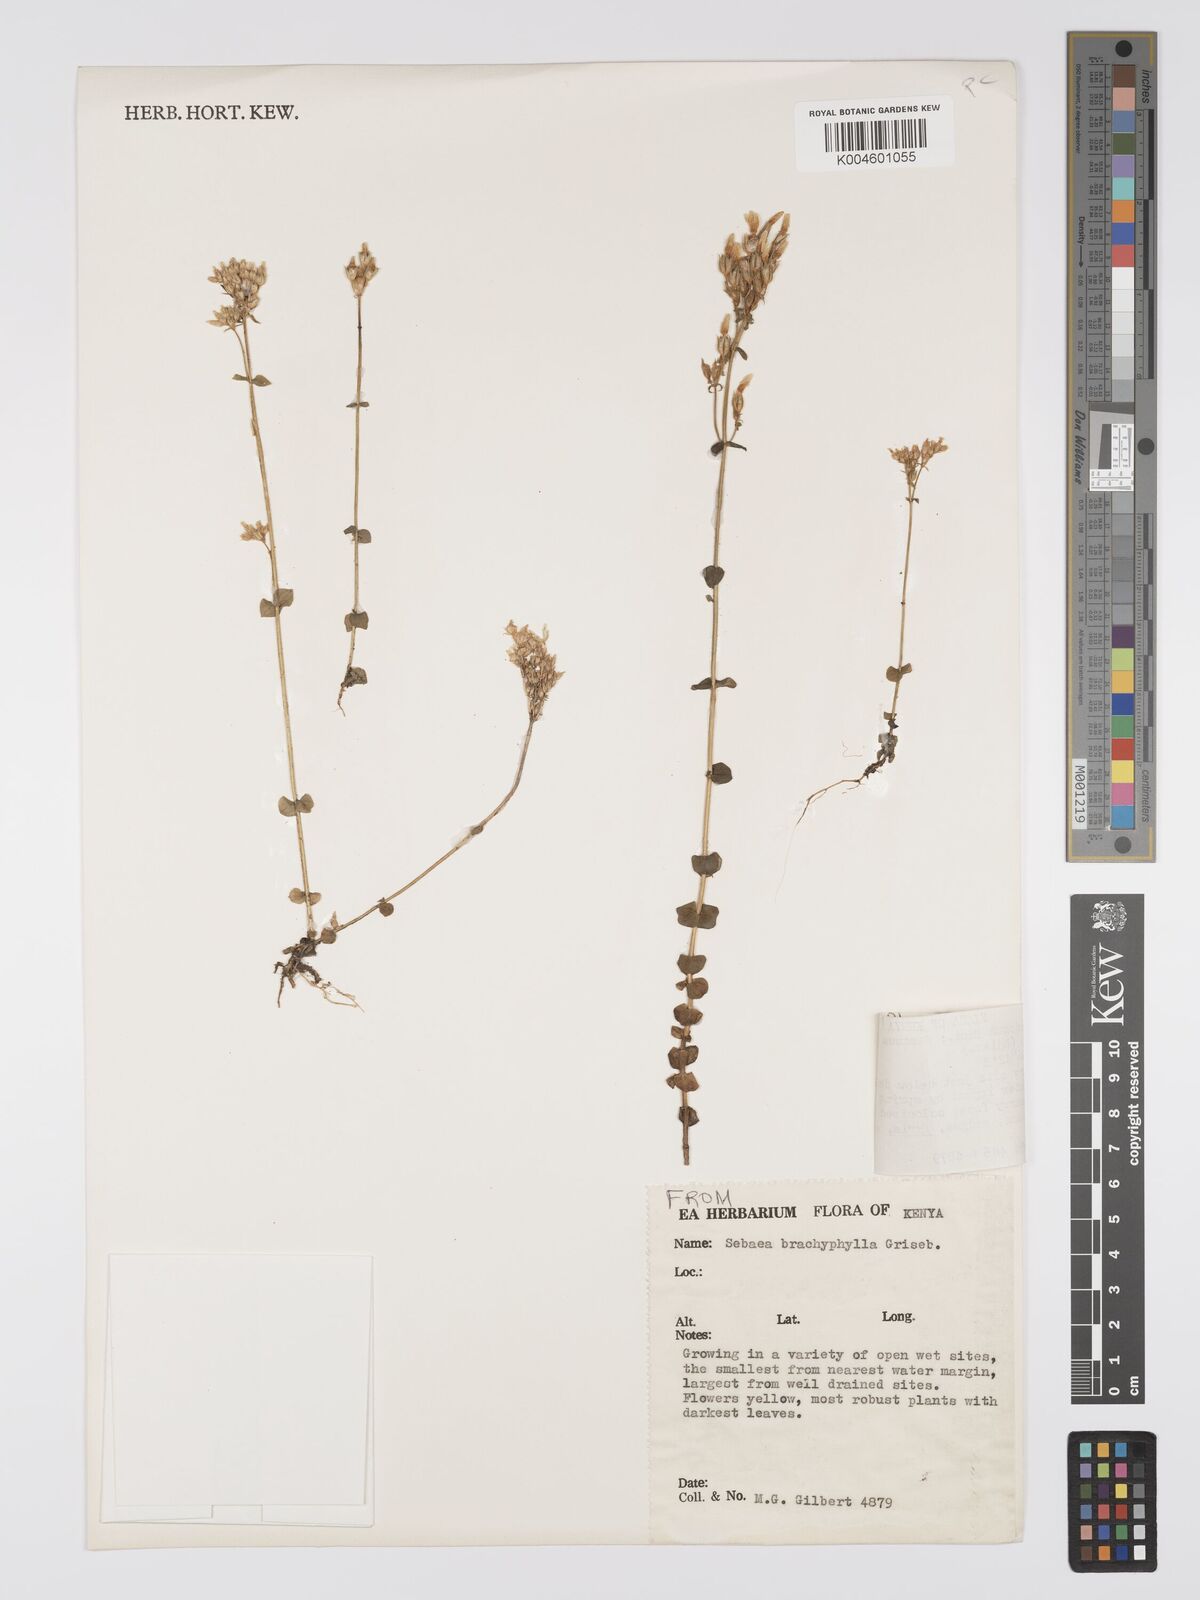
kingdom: Plantae
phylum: Tracheophyta
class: Magnoliopsida
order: Gentianales
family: Gentianaceae
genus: Sebaea
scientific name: Sebaea brachyphylla
